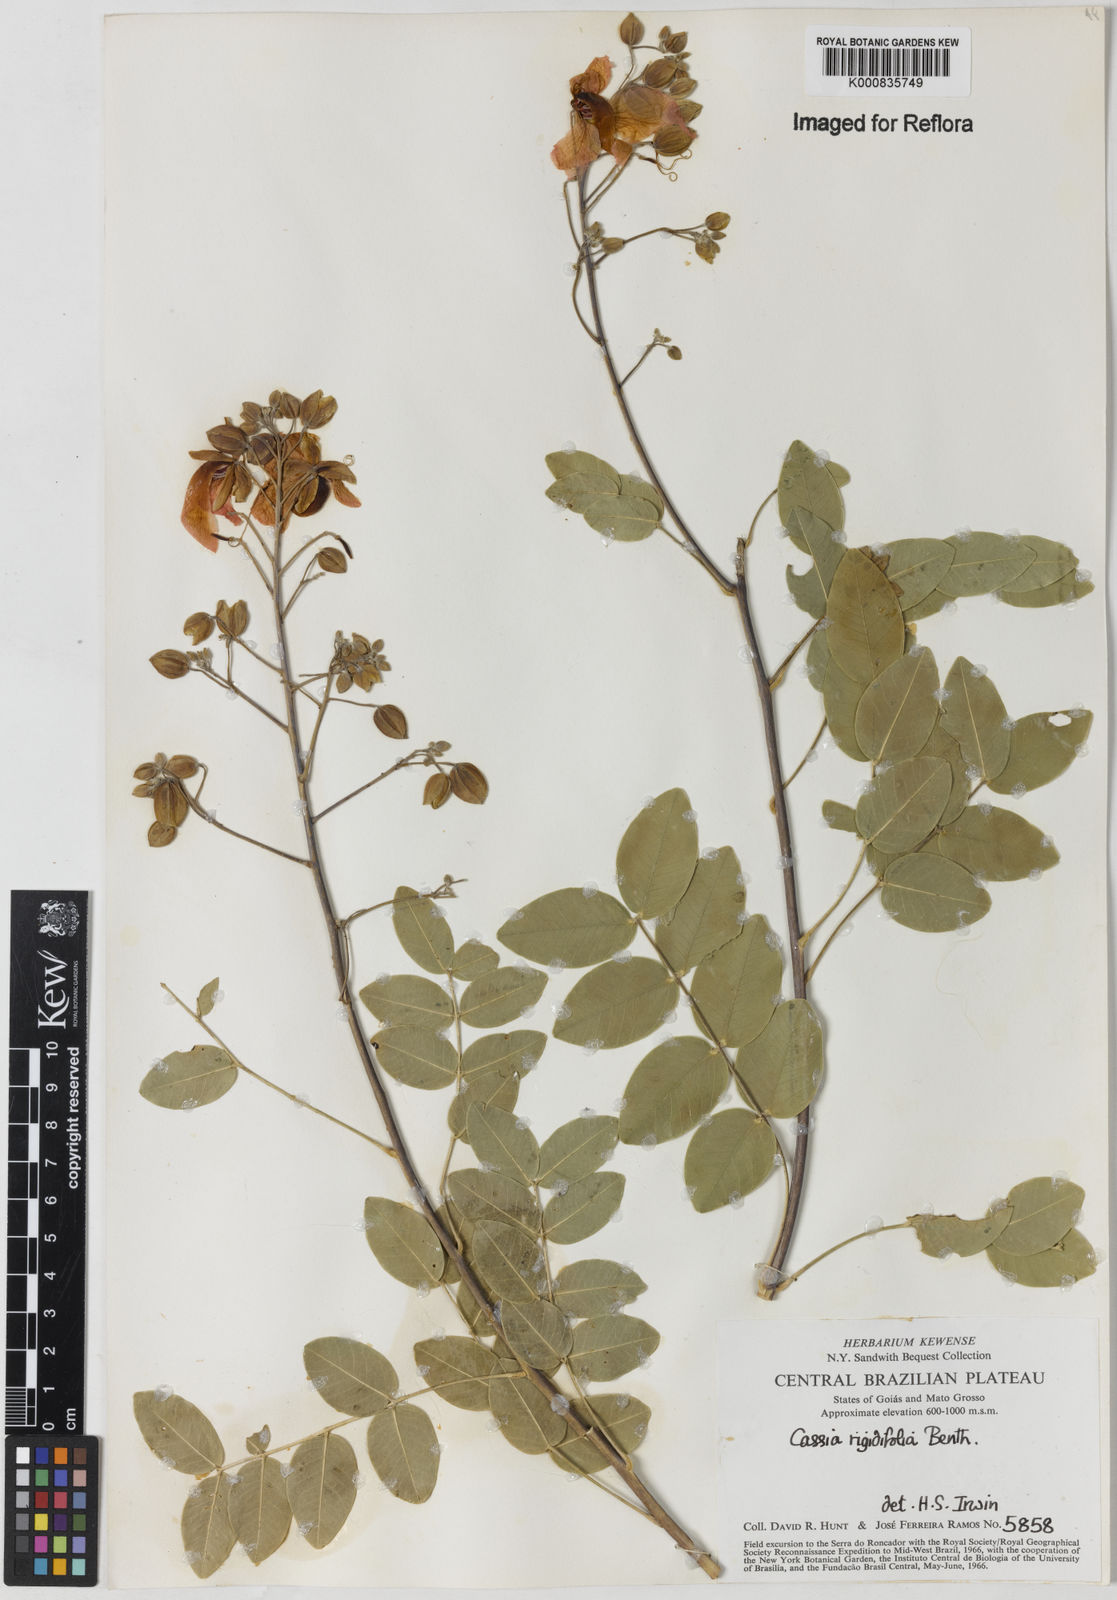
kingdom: Plantae
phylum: Tracheophyta
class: Magnoliopsida
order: Fabales
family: Fabaceae
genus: Chamaecrista
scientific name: Chamaecrista rigidifolia
